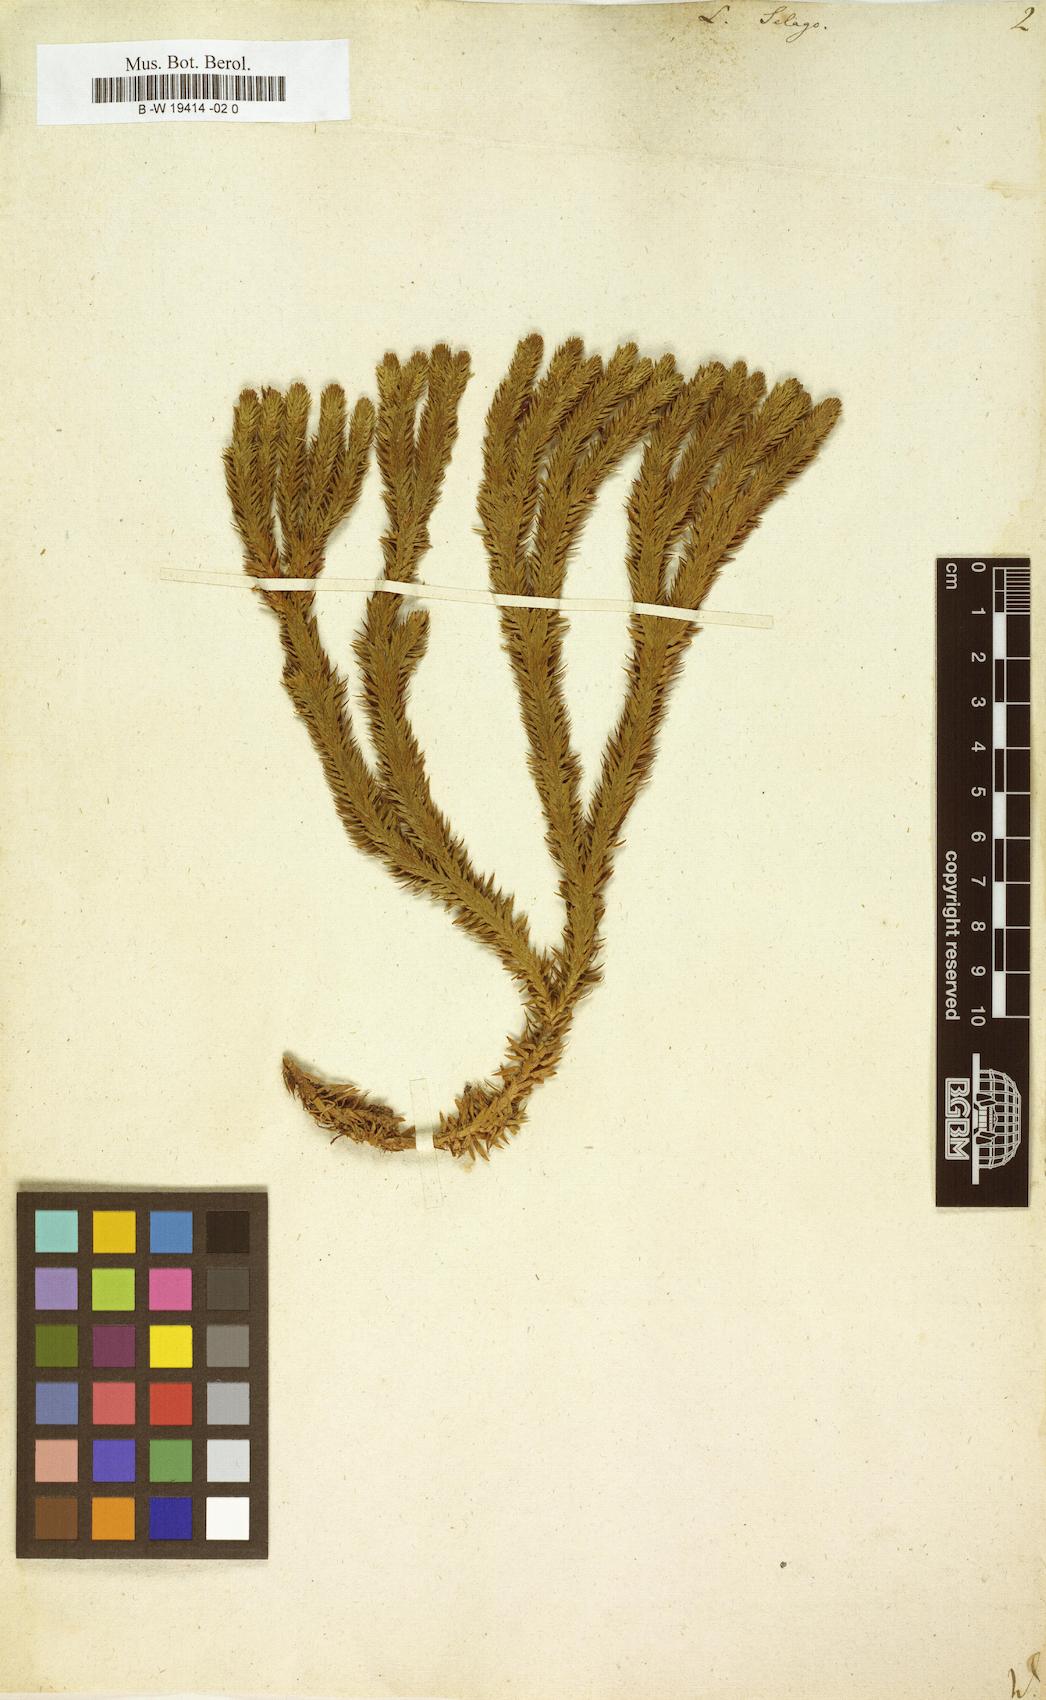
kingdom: Plantae
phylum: Tracheophyta
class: Lycopodiopsida
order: Lycopodiales
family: Lycopodiaceae
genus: Huperzia
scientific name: Huperzia selago
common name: Northern firmoss
